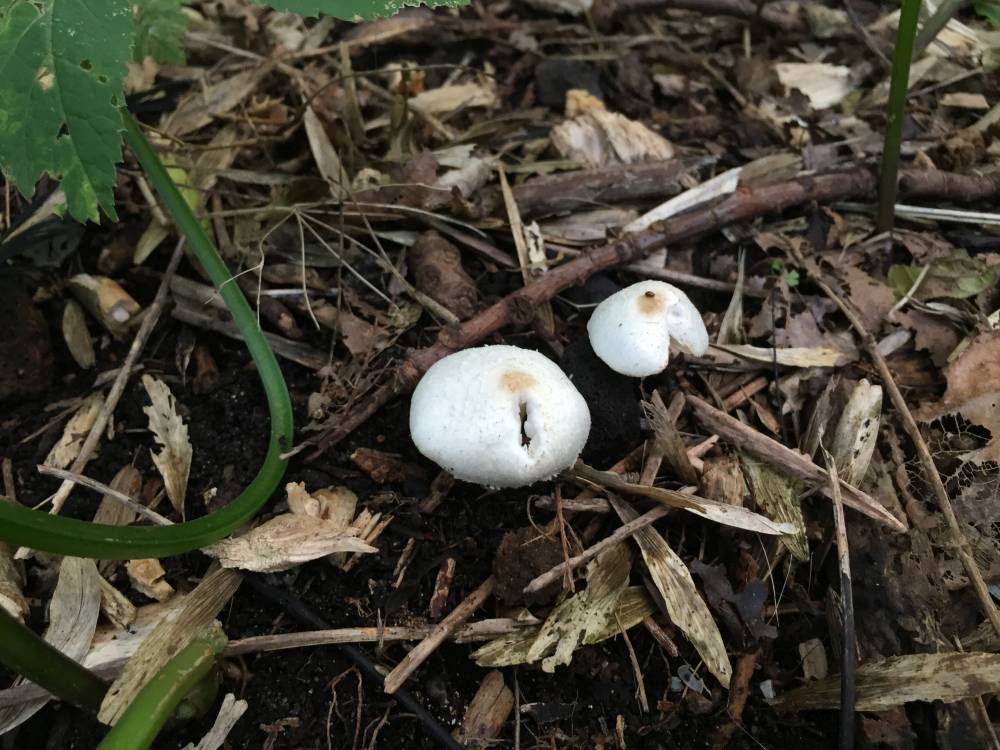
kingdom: Fungi
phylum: Basidiomycota
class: Agaricomycetes
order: Agaricales
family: Agaricaceae
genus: Lepiota
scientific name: Lepiota cristata
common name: stinkende parasolhat
